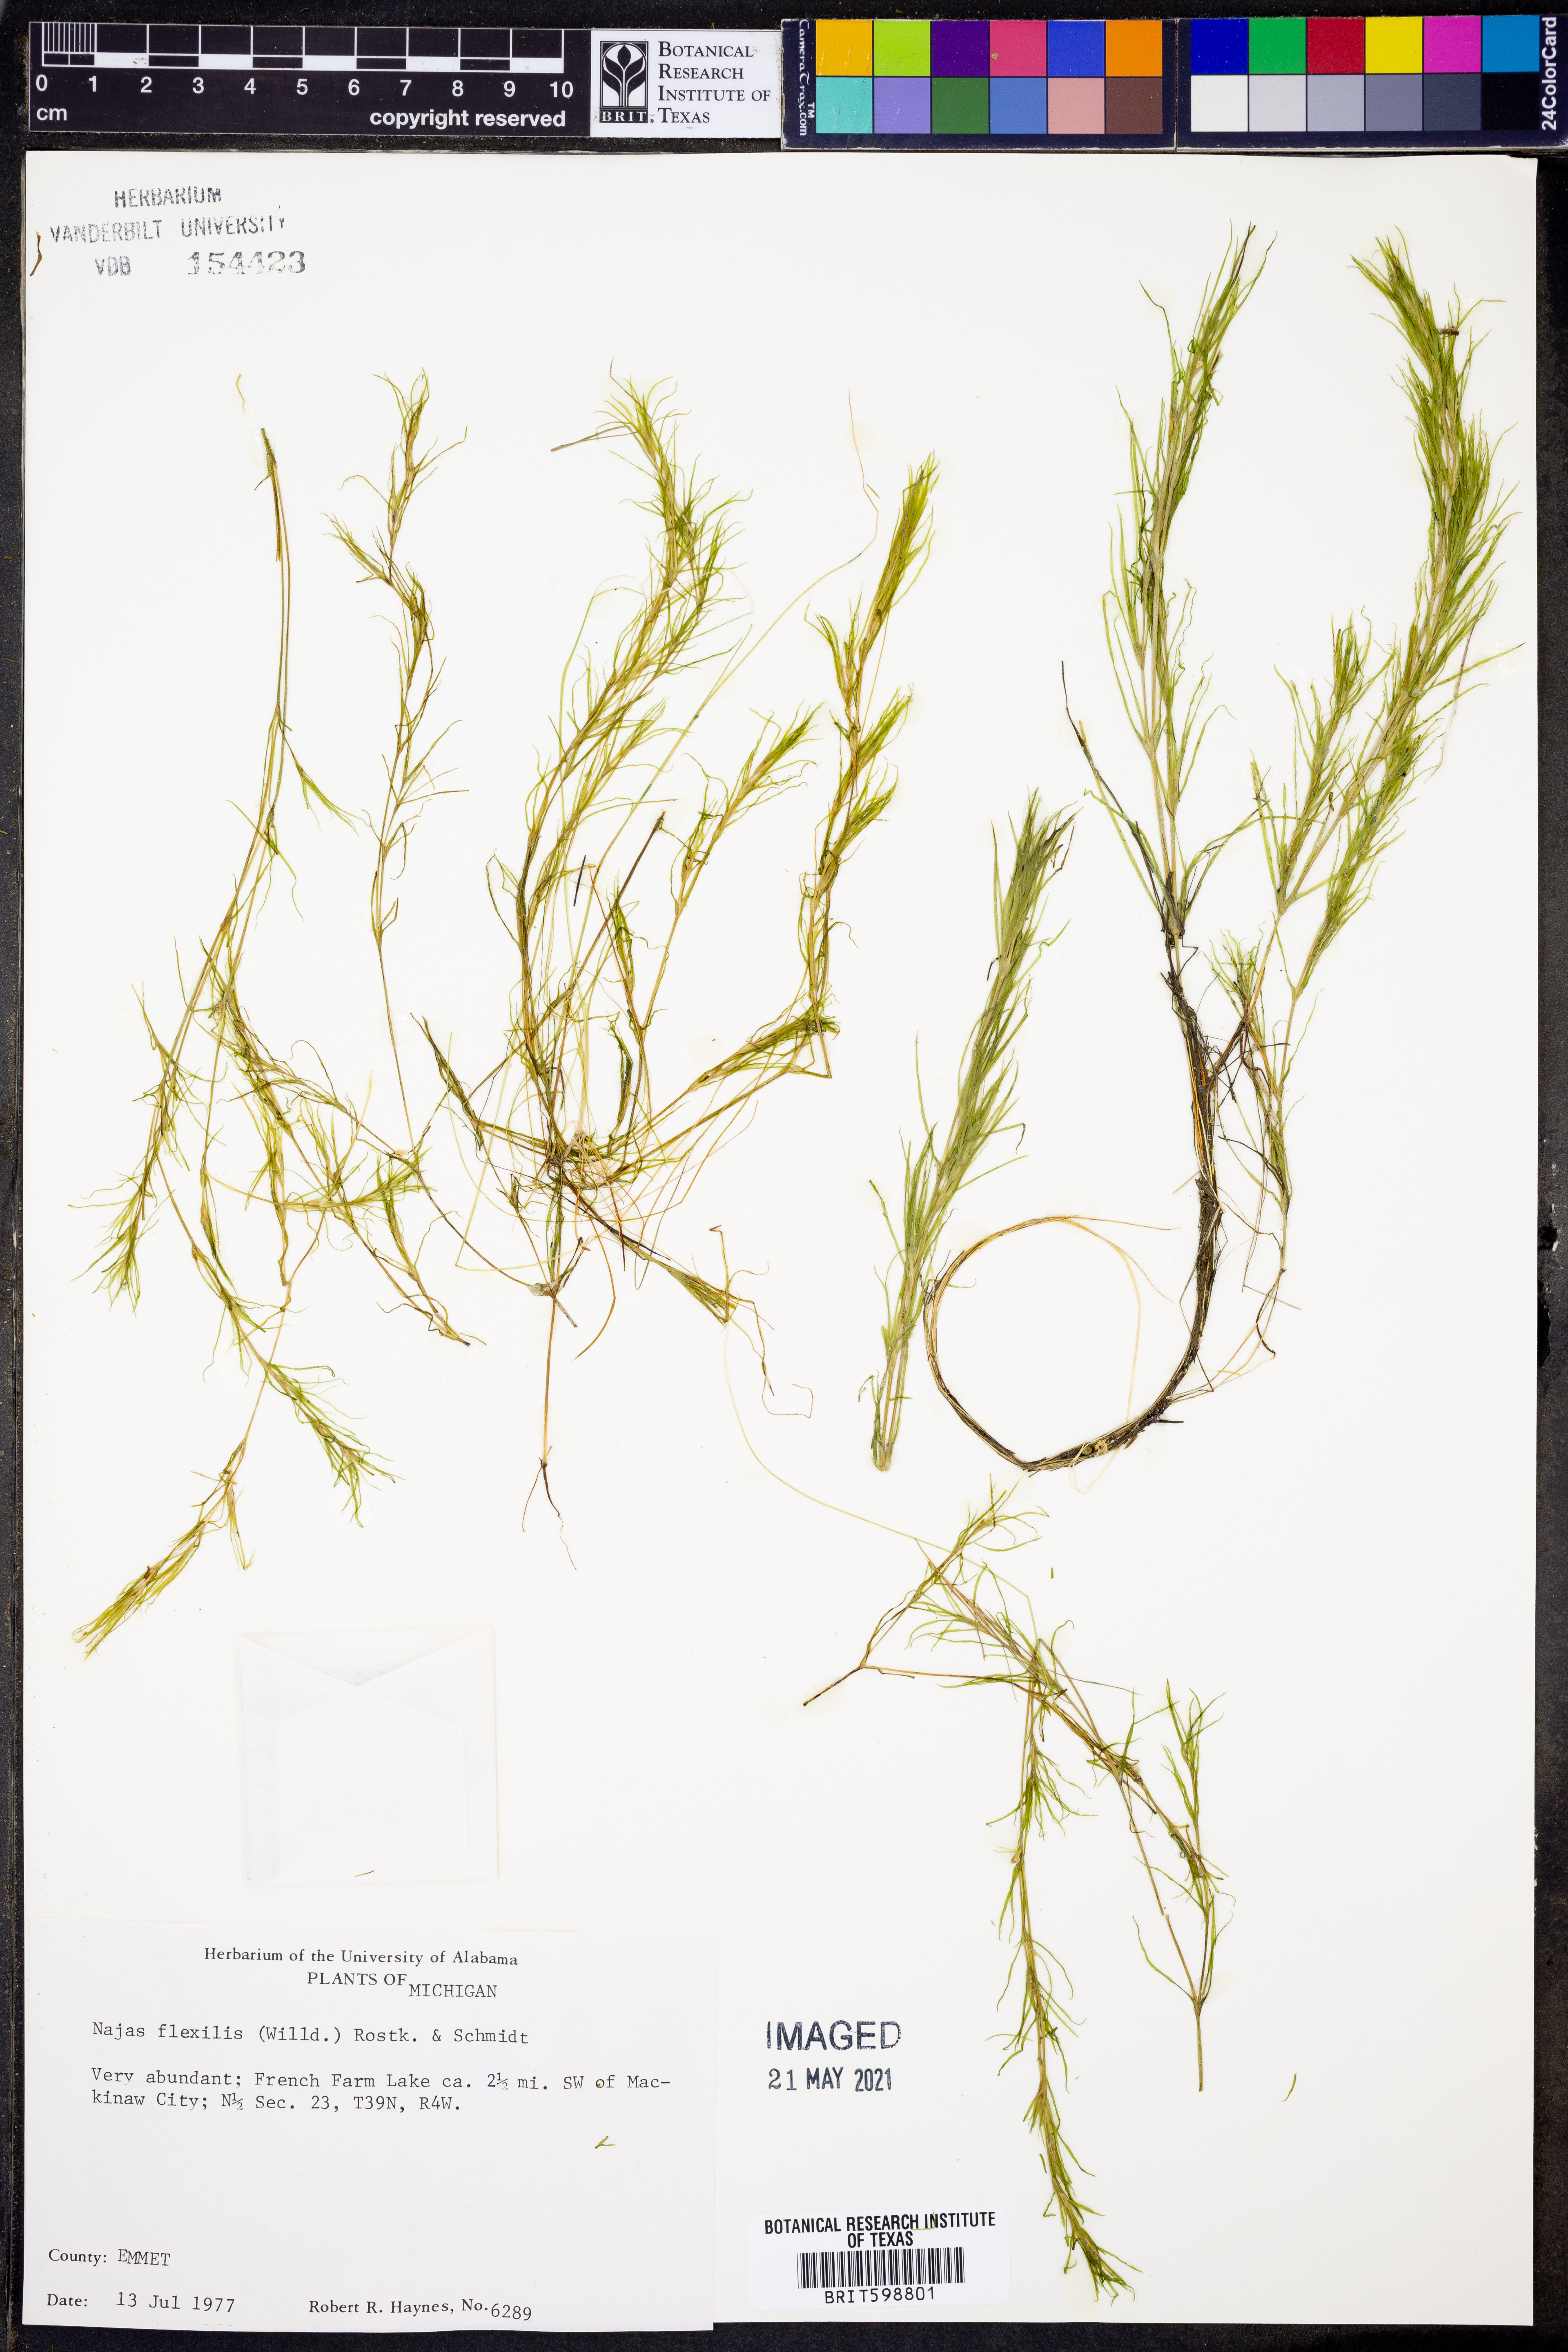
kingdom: Plantae
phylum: Tracheophyta
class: Liliopsida
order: Alismatales
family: Hydrocharitaceae
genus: Najas
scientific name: Najas flexilis
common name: Slender naiad
